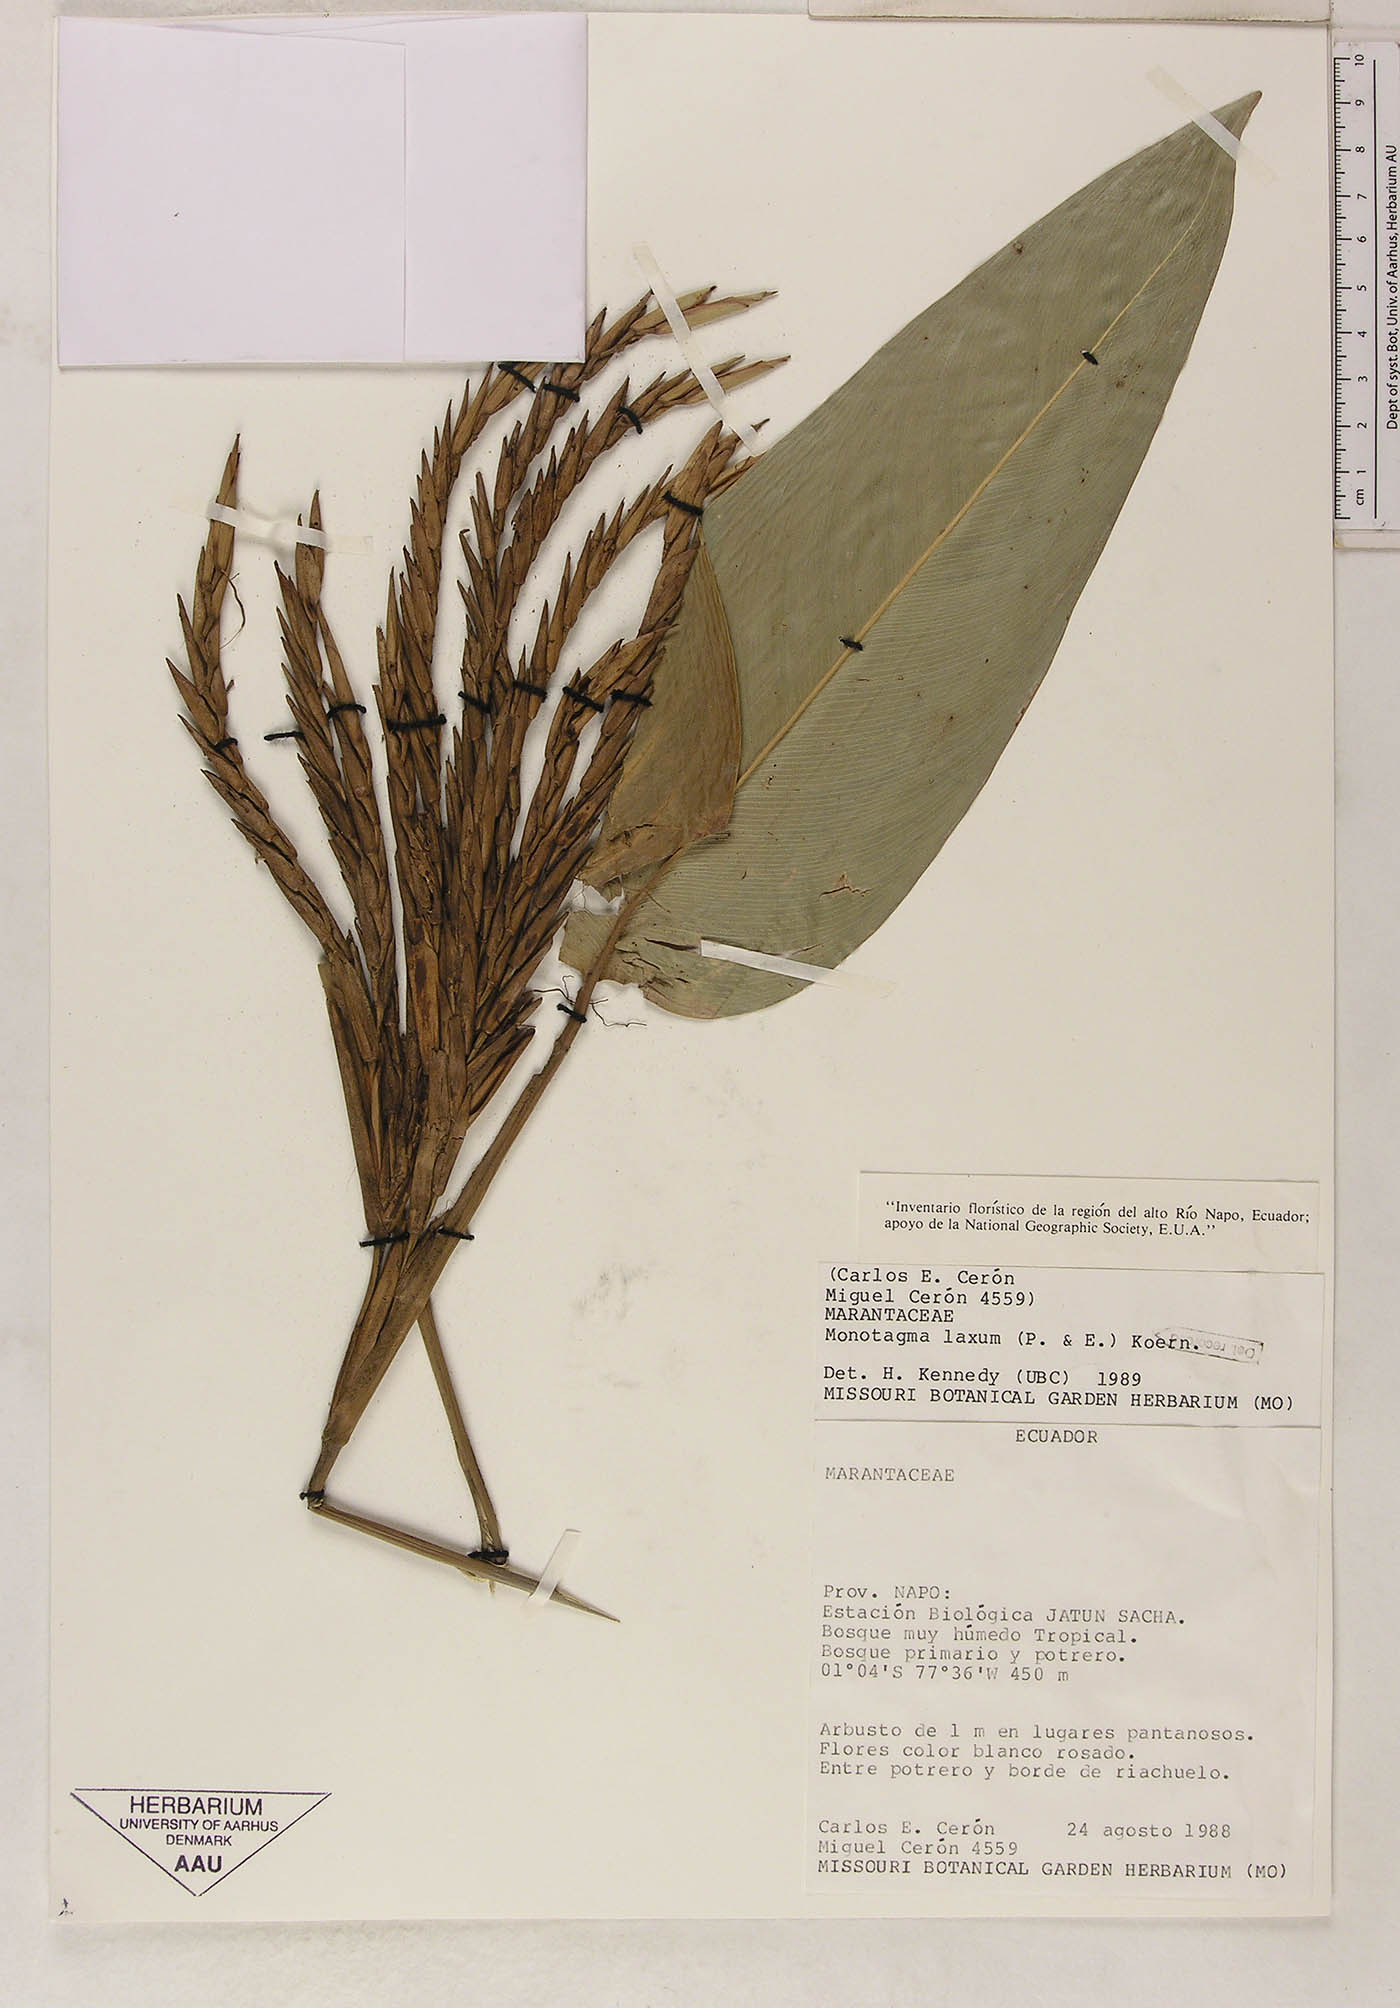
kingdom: Plantae
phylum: Tracheophyta
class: Liliopsida
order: Zingiberales
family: Marantaceae
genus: Monotagma
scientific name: Monotagma laxum
